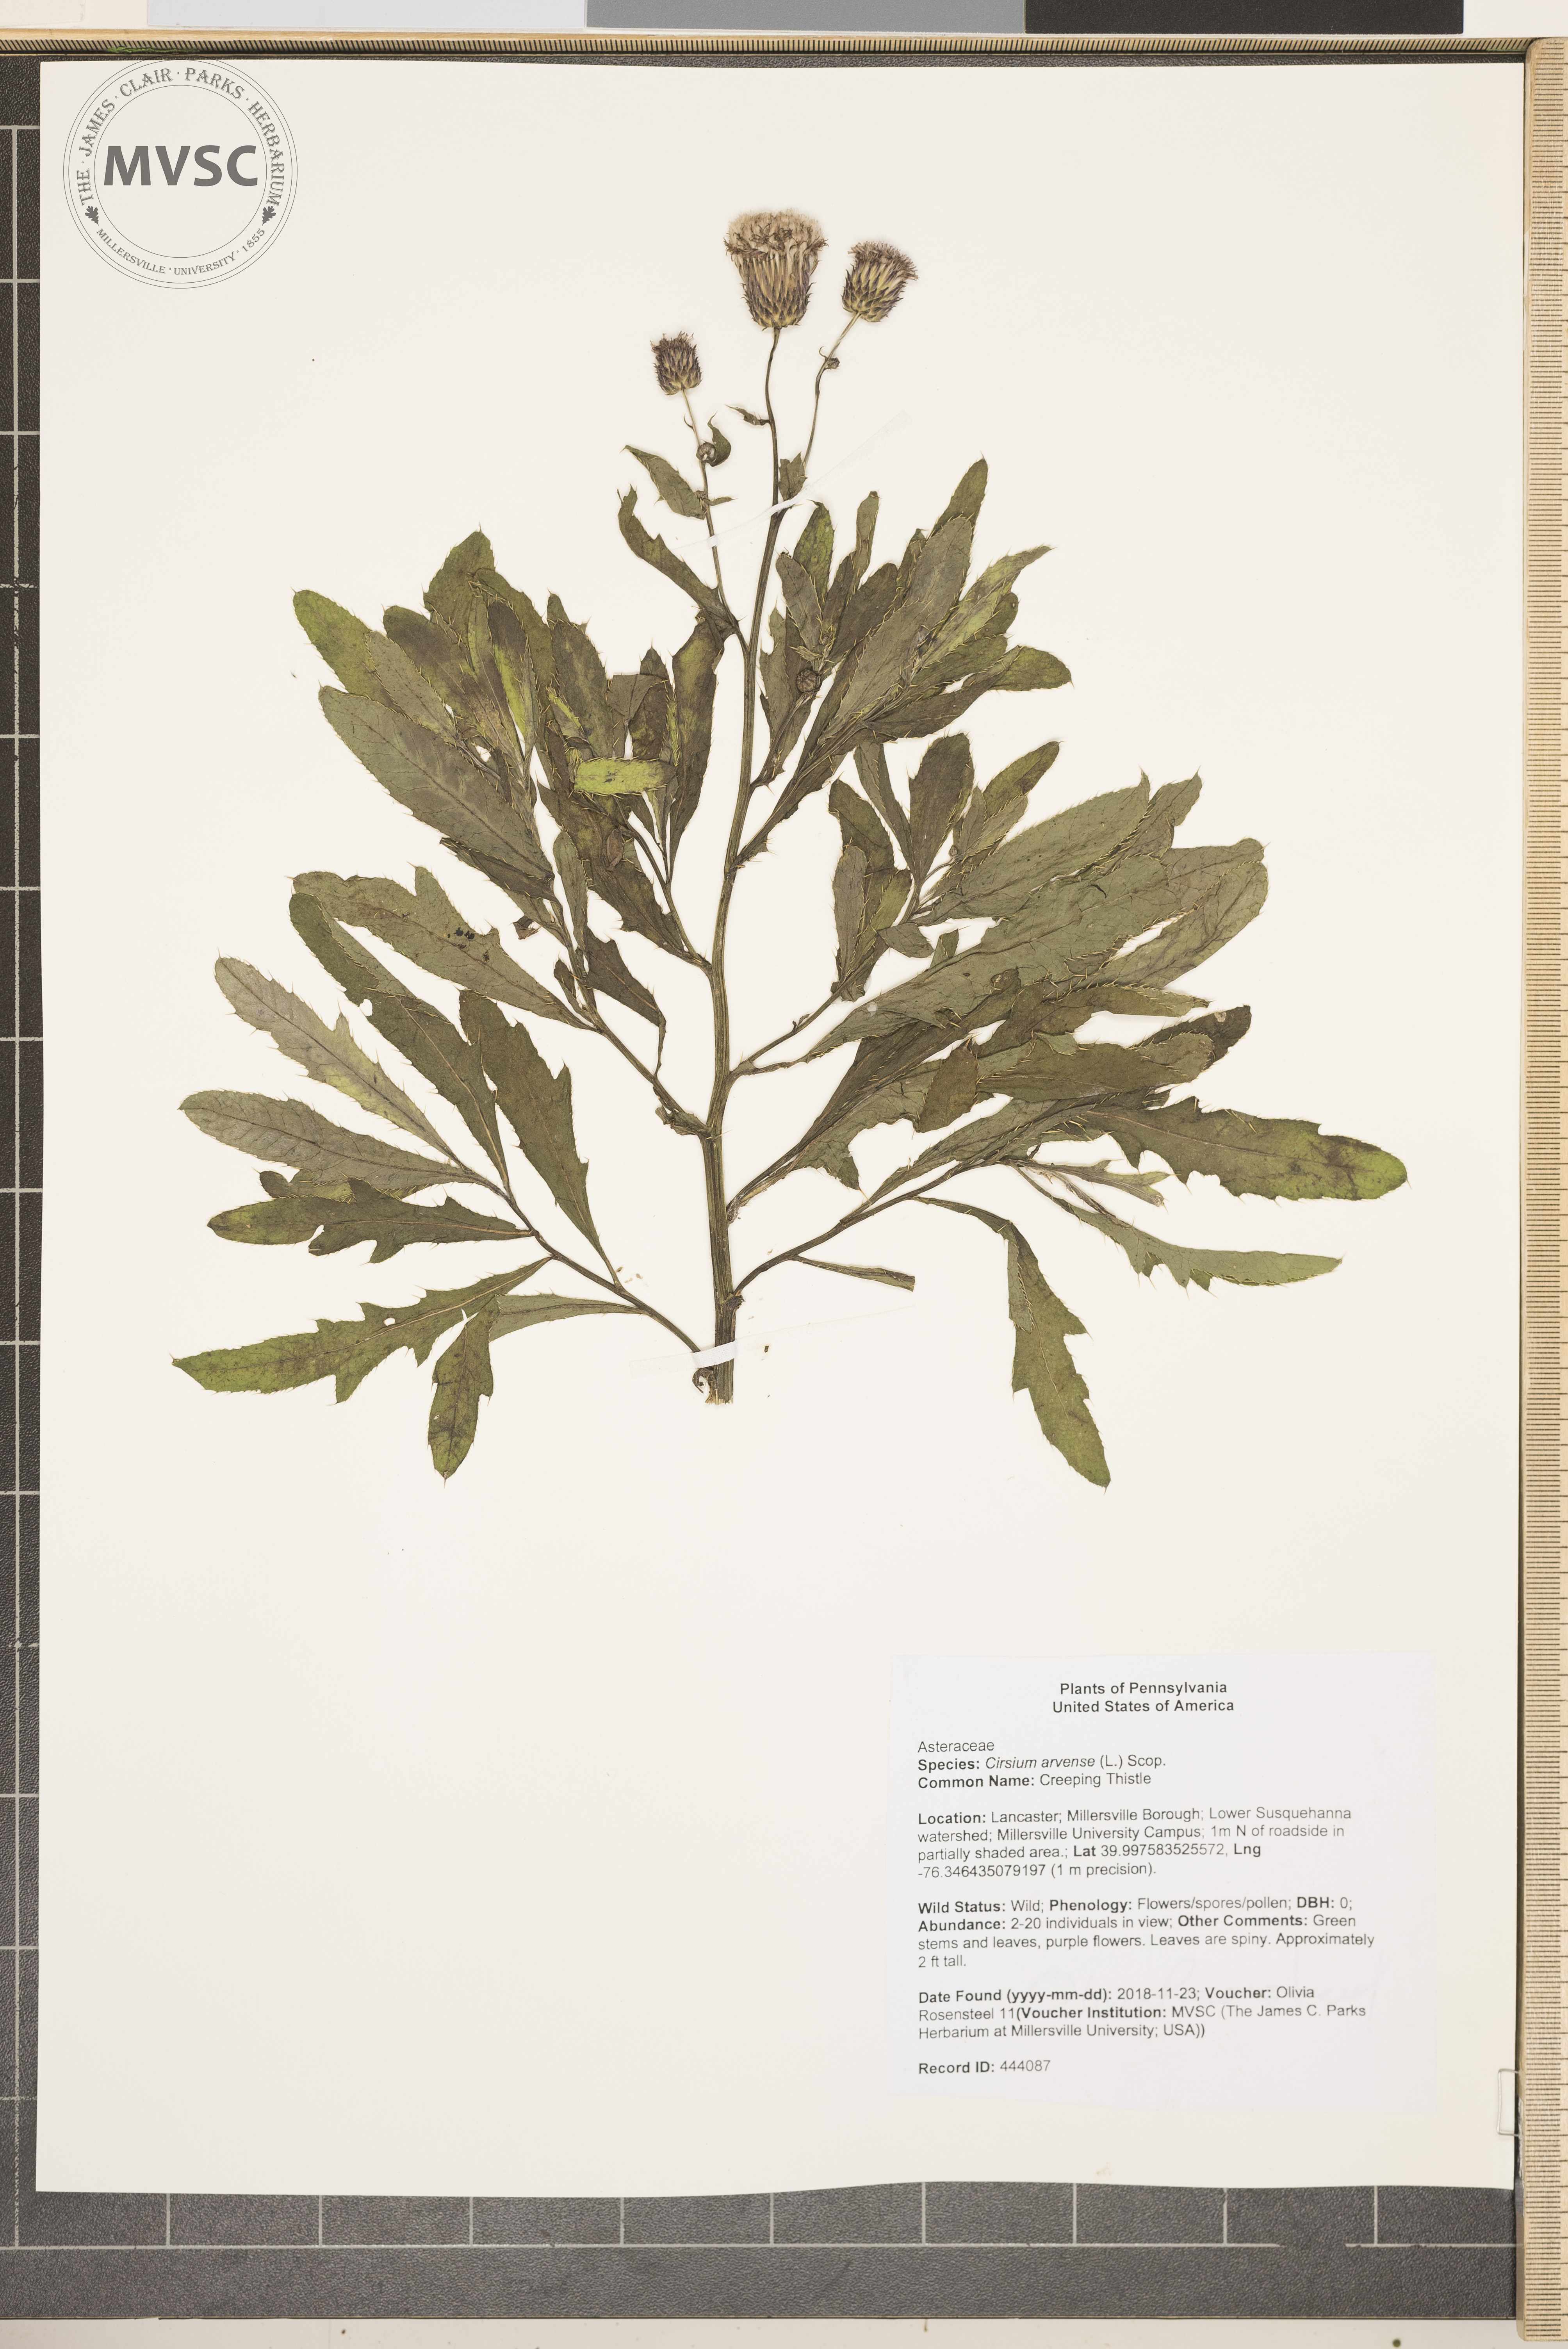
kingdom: Plantae
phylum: Tracheophyta
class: Magnoliopsida
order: Asterales
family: Asteraceae
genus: Cirsium
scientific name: Cirsium arvense
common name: Creeping Thistle
